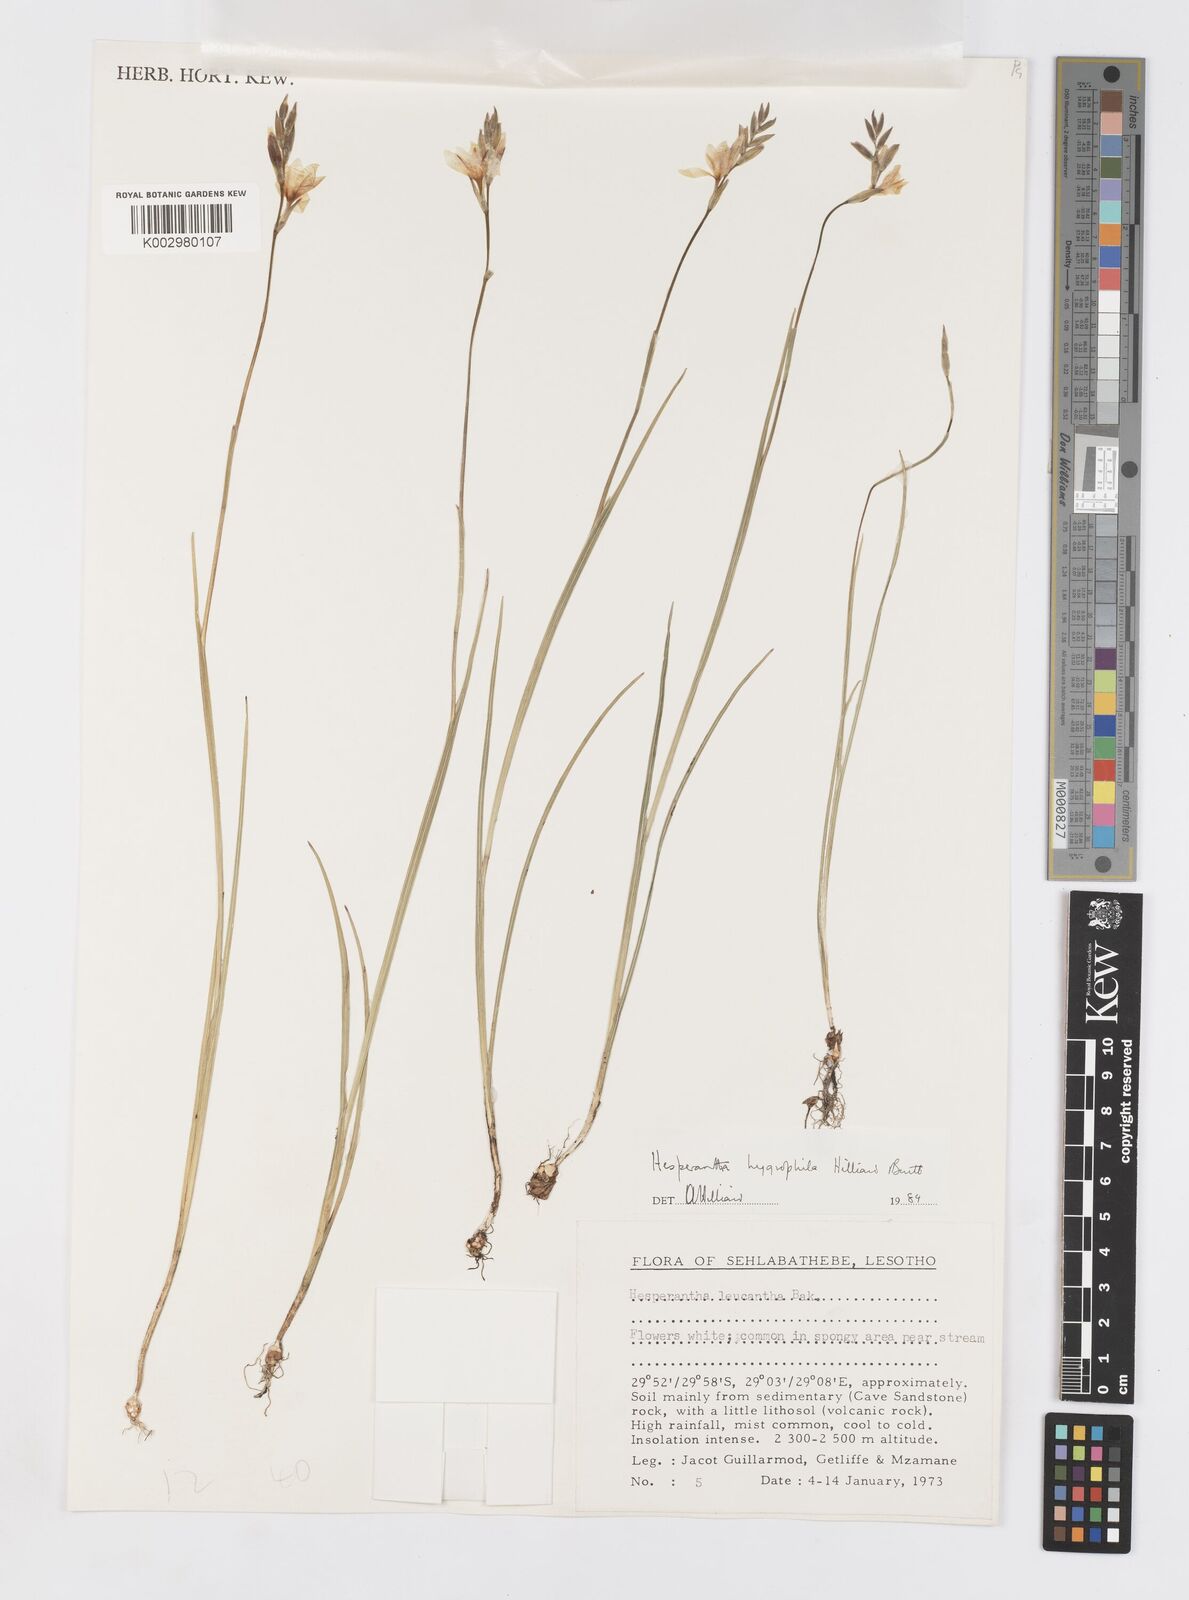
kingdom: Plantae
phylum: Tracheophyta
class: Liliopsida
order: Asparagales
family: Iridaceae
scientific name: Iridaceae
